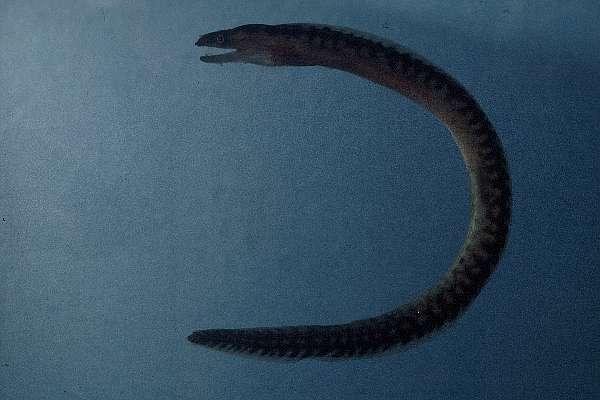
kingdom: Animalia
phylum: Chordata
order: Anguilliformes
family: Muraenidae
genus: Gymnothorax
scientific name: Gymnothorax margaritophorus
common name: Blotch-necked moray
